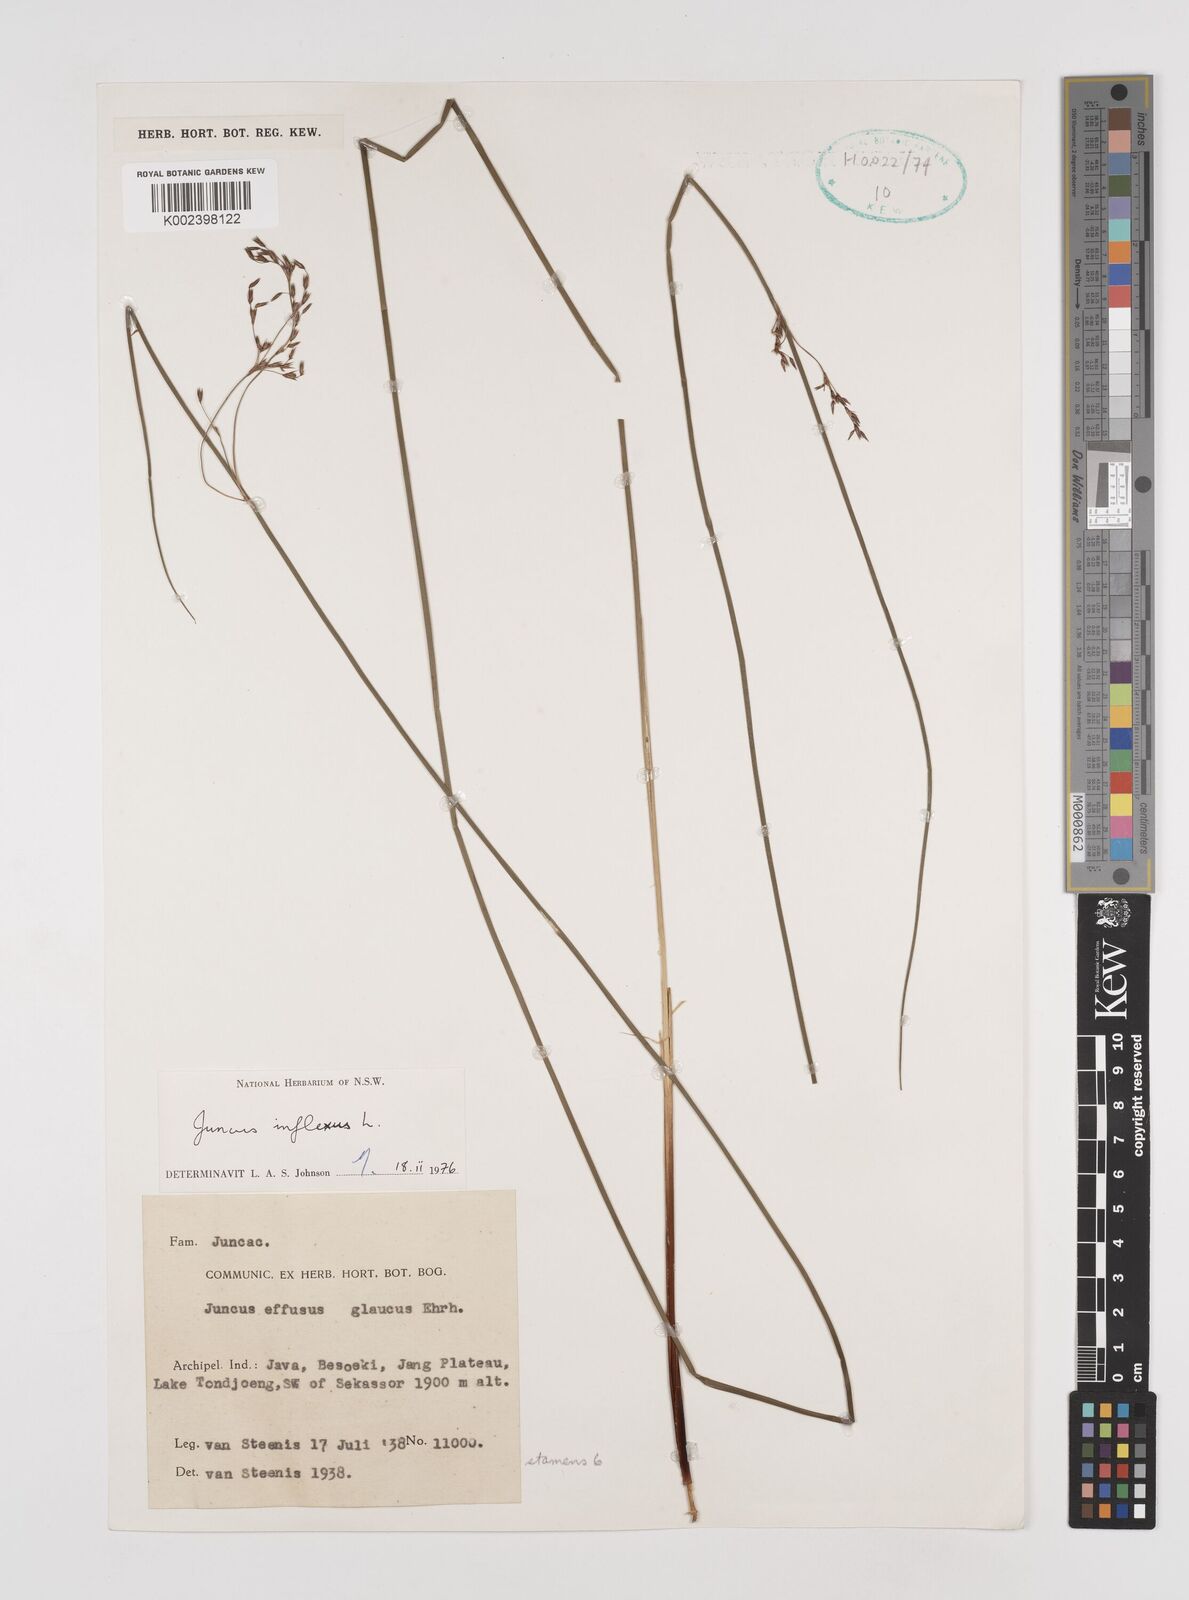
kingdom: Plantae
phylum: Tracheophyta
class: Liliopsida
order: Poales
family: Juncaceae
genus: Juncus
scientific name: Juncus inflexus
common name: Hard rush
